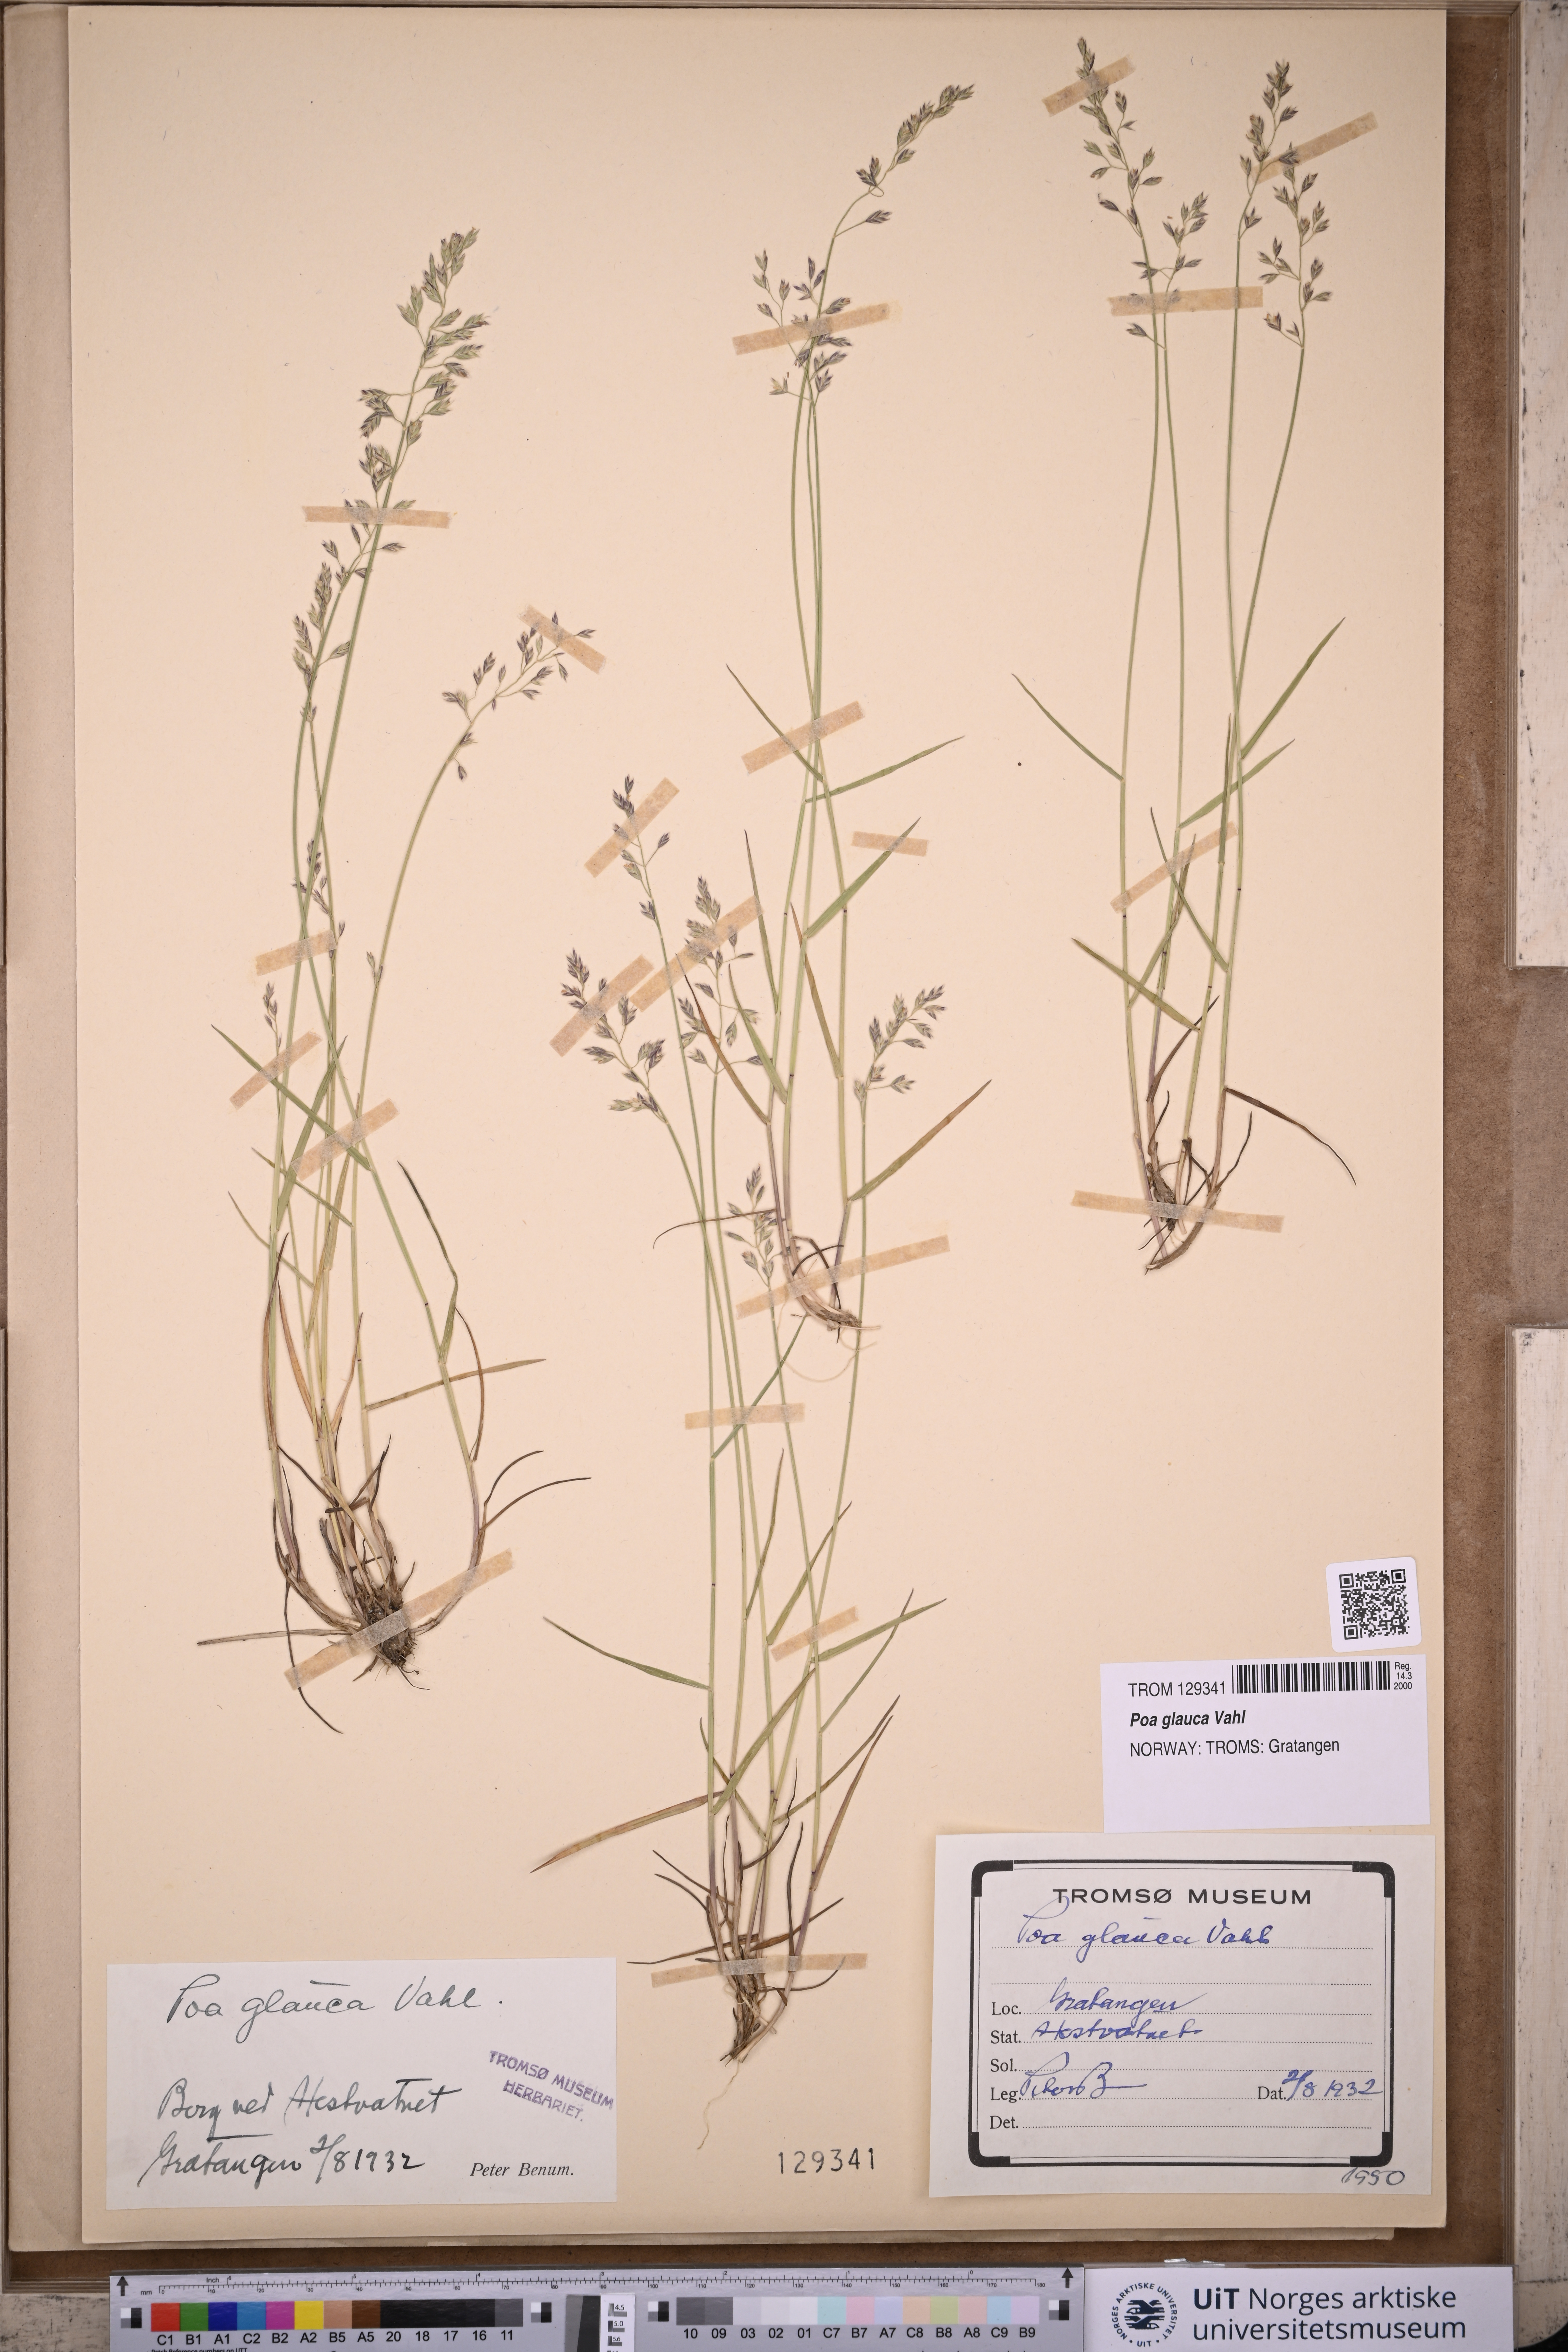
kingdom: Plantae
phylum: Tracheophyta
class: Liliopsida
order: Poales
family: Poaceae
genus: Poa
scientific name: Poa glauca
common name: Glaucous bluegrass
